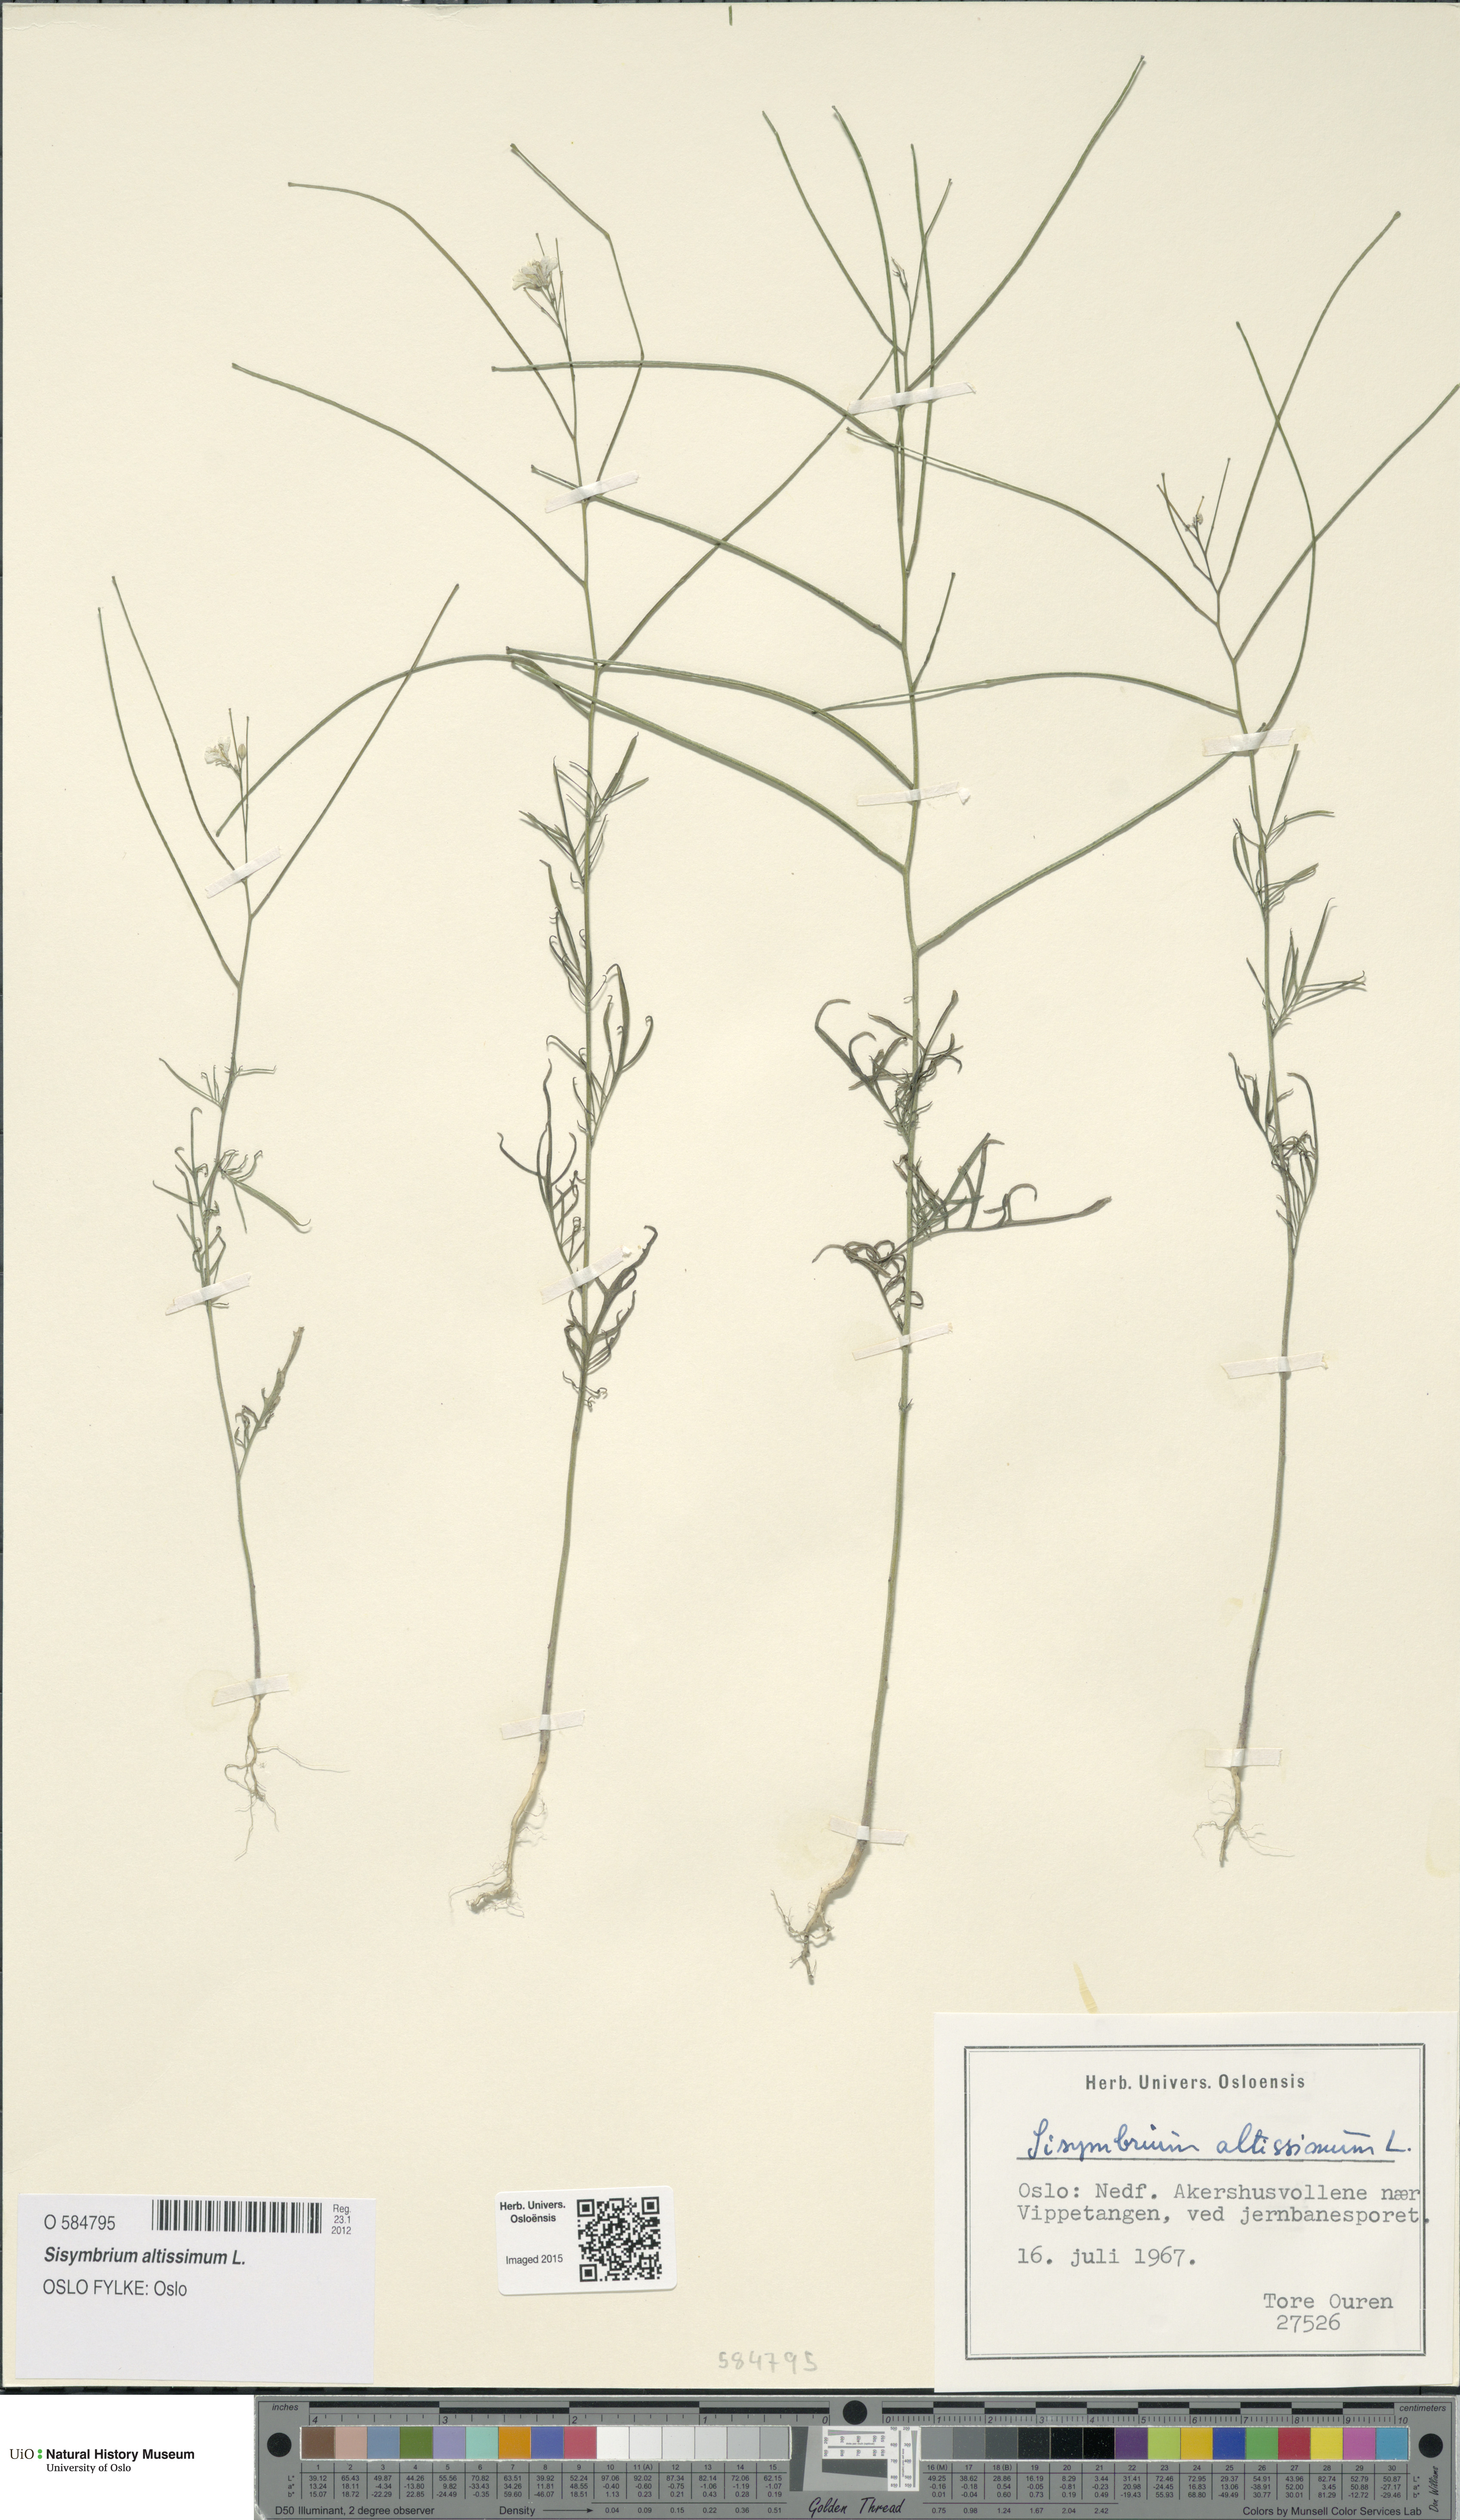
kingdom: Plantae
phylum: Tracheophyta
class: Magnoliopsida
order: Brassicales
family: Brassicaceae
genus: Sisymbrium
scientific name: Sisymbrium altissimum
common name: Tall rocket
